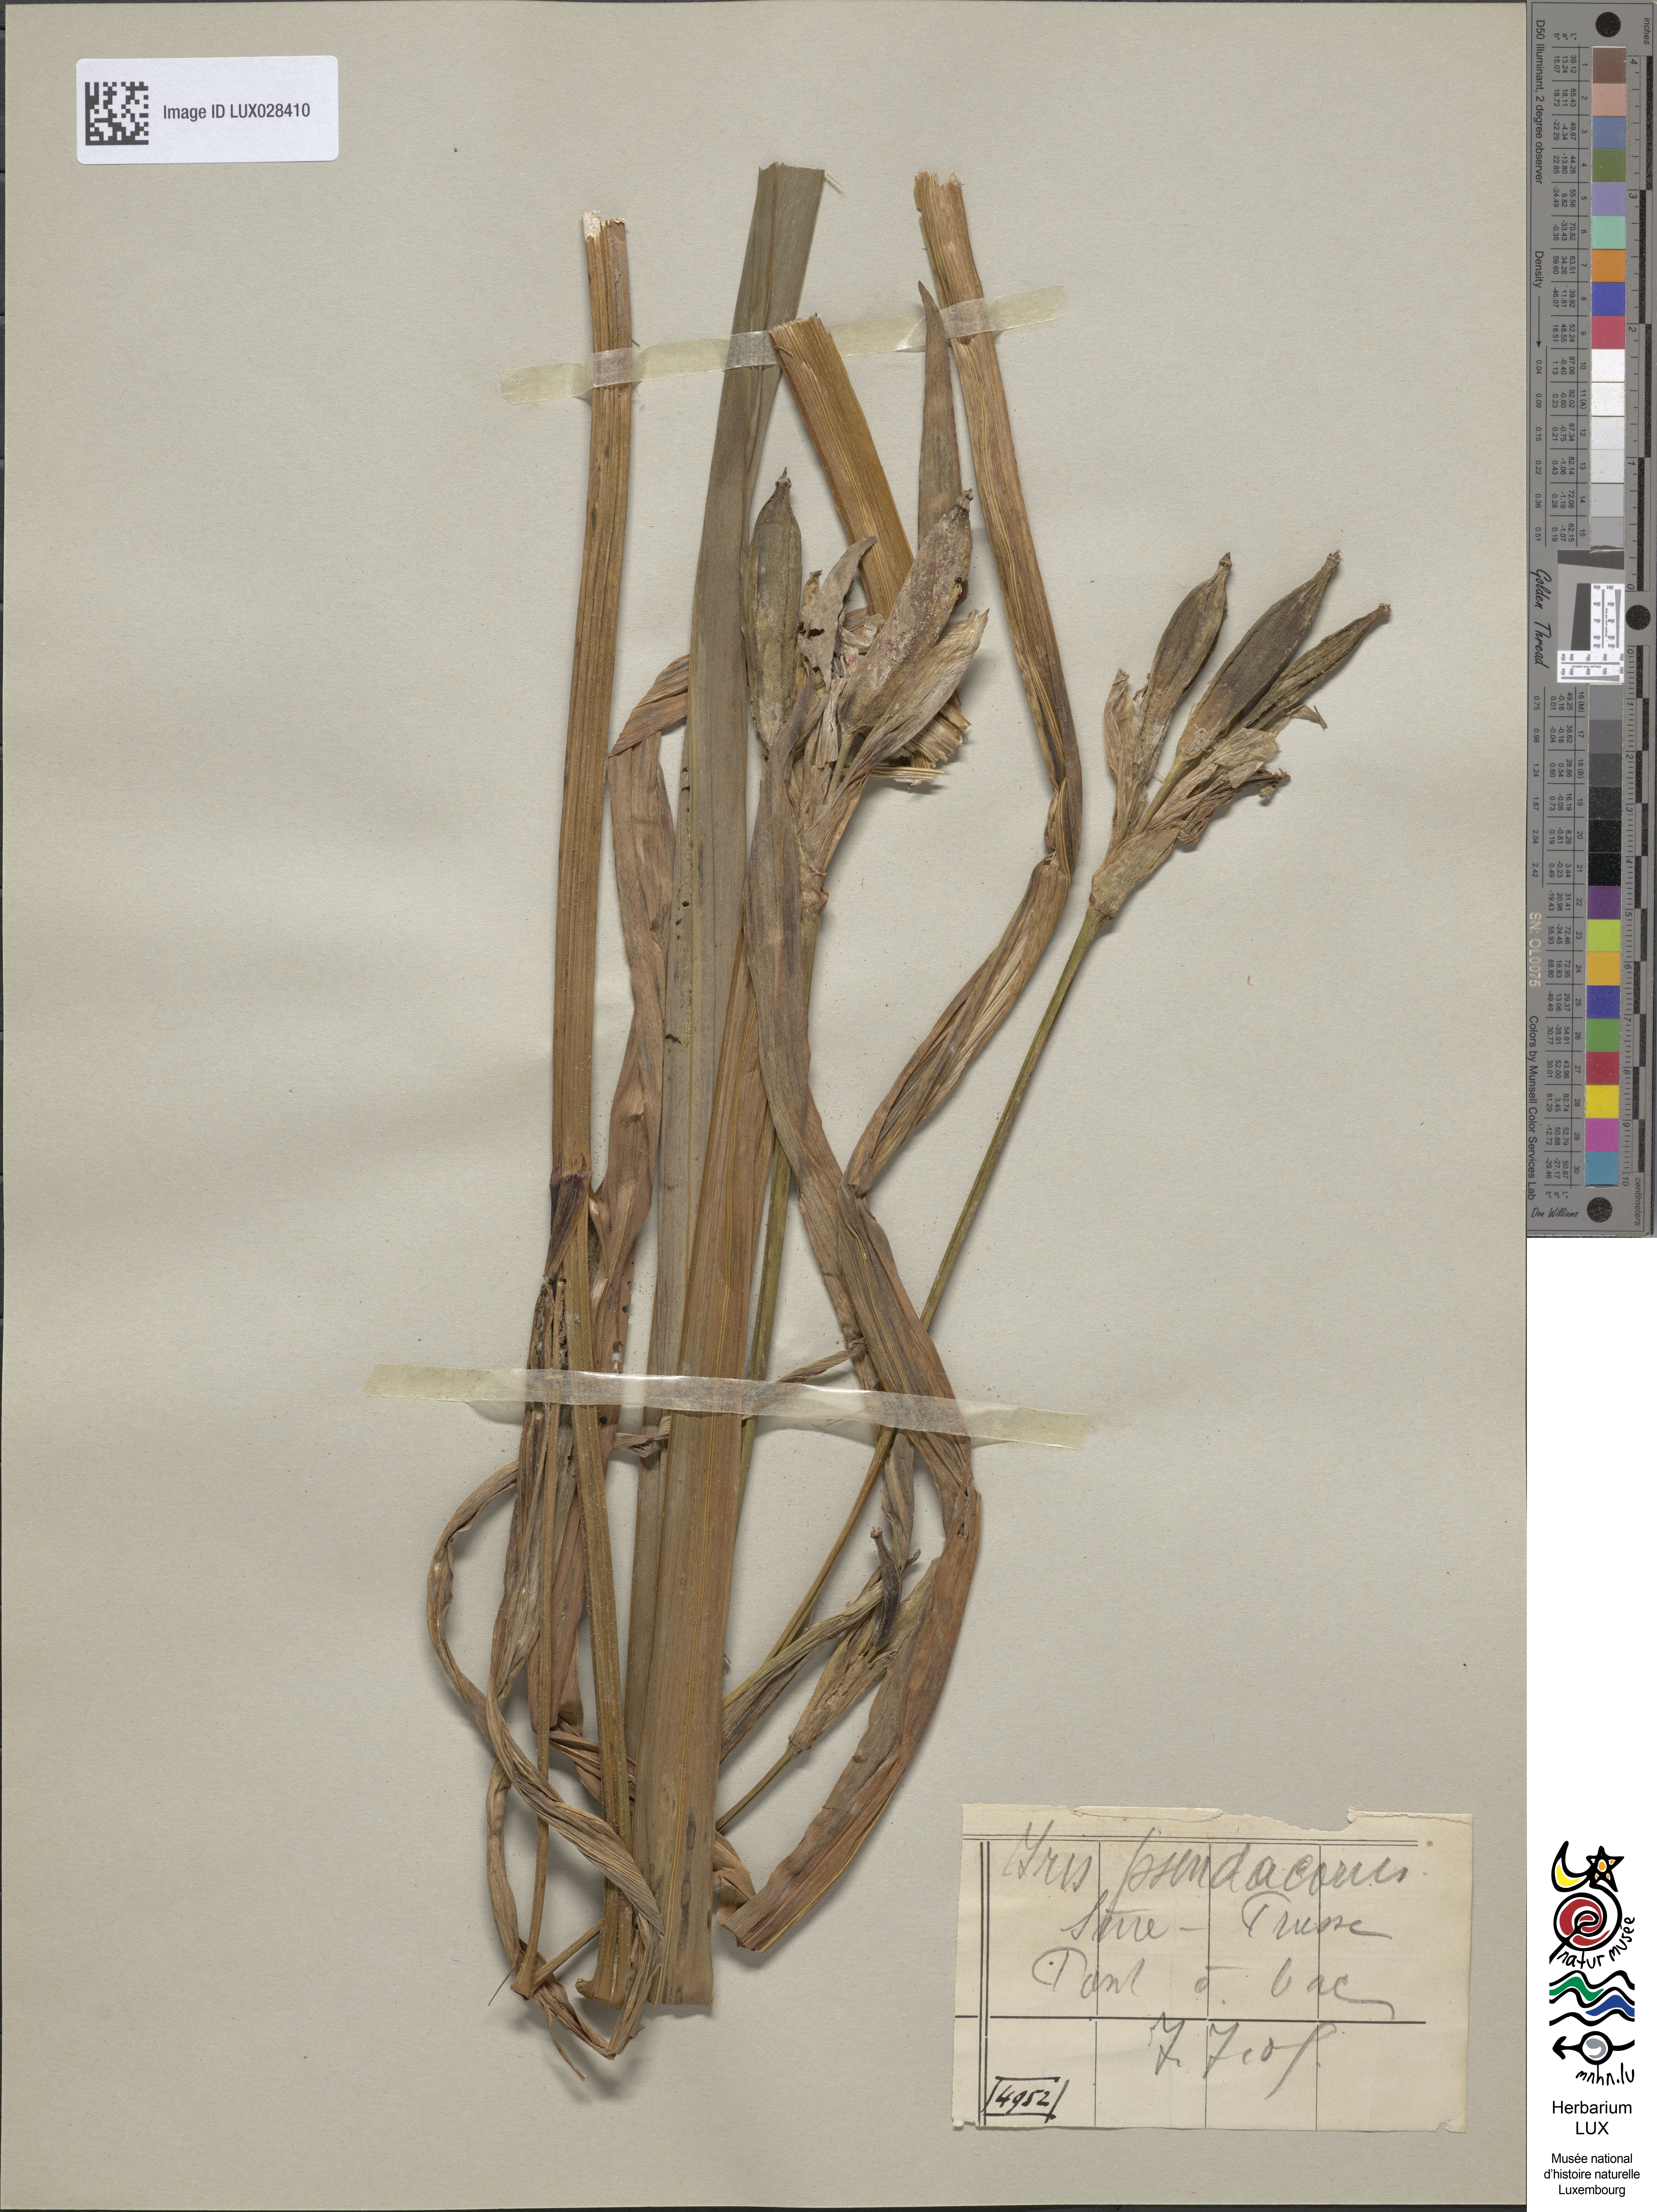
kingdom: Plantae
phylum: Tracheophyta
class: Liliopsida
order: Asparagales
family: Iridaceae
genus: Iris
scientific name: Iris pseudacorus
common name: Yellow flag
